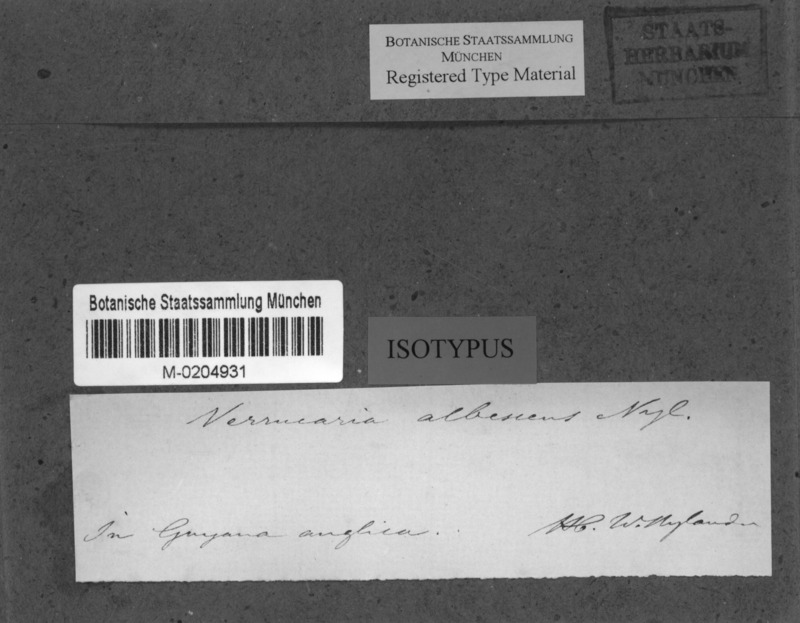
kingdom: Fungi
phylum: Ascomycota
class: Eurotiomycetes
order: Pyrenulales
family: Pyrenulaceae
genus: Anthracothecium
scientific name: Anthracothecium albescens
